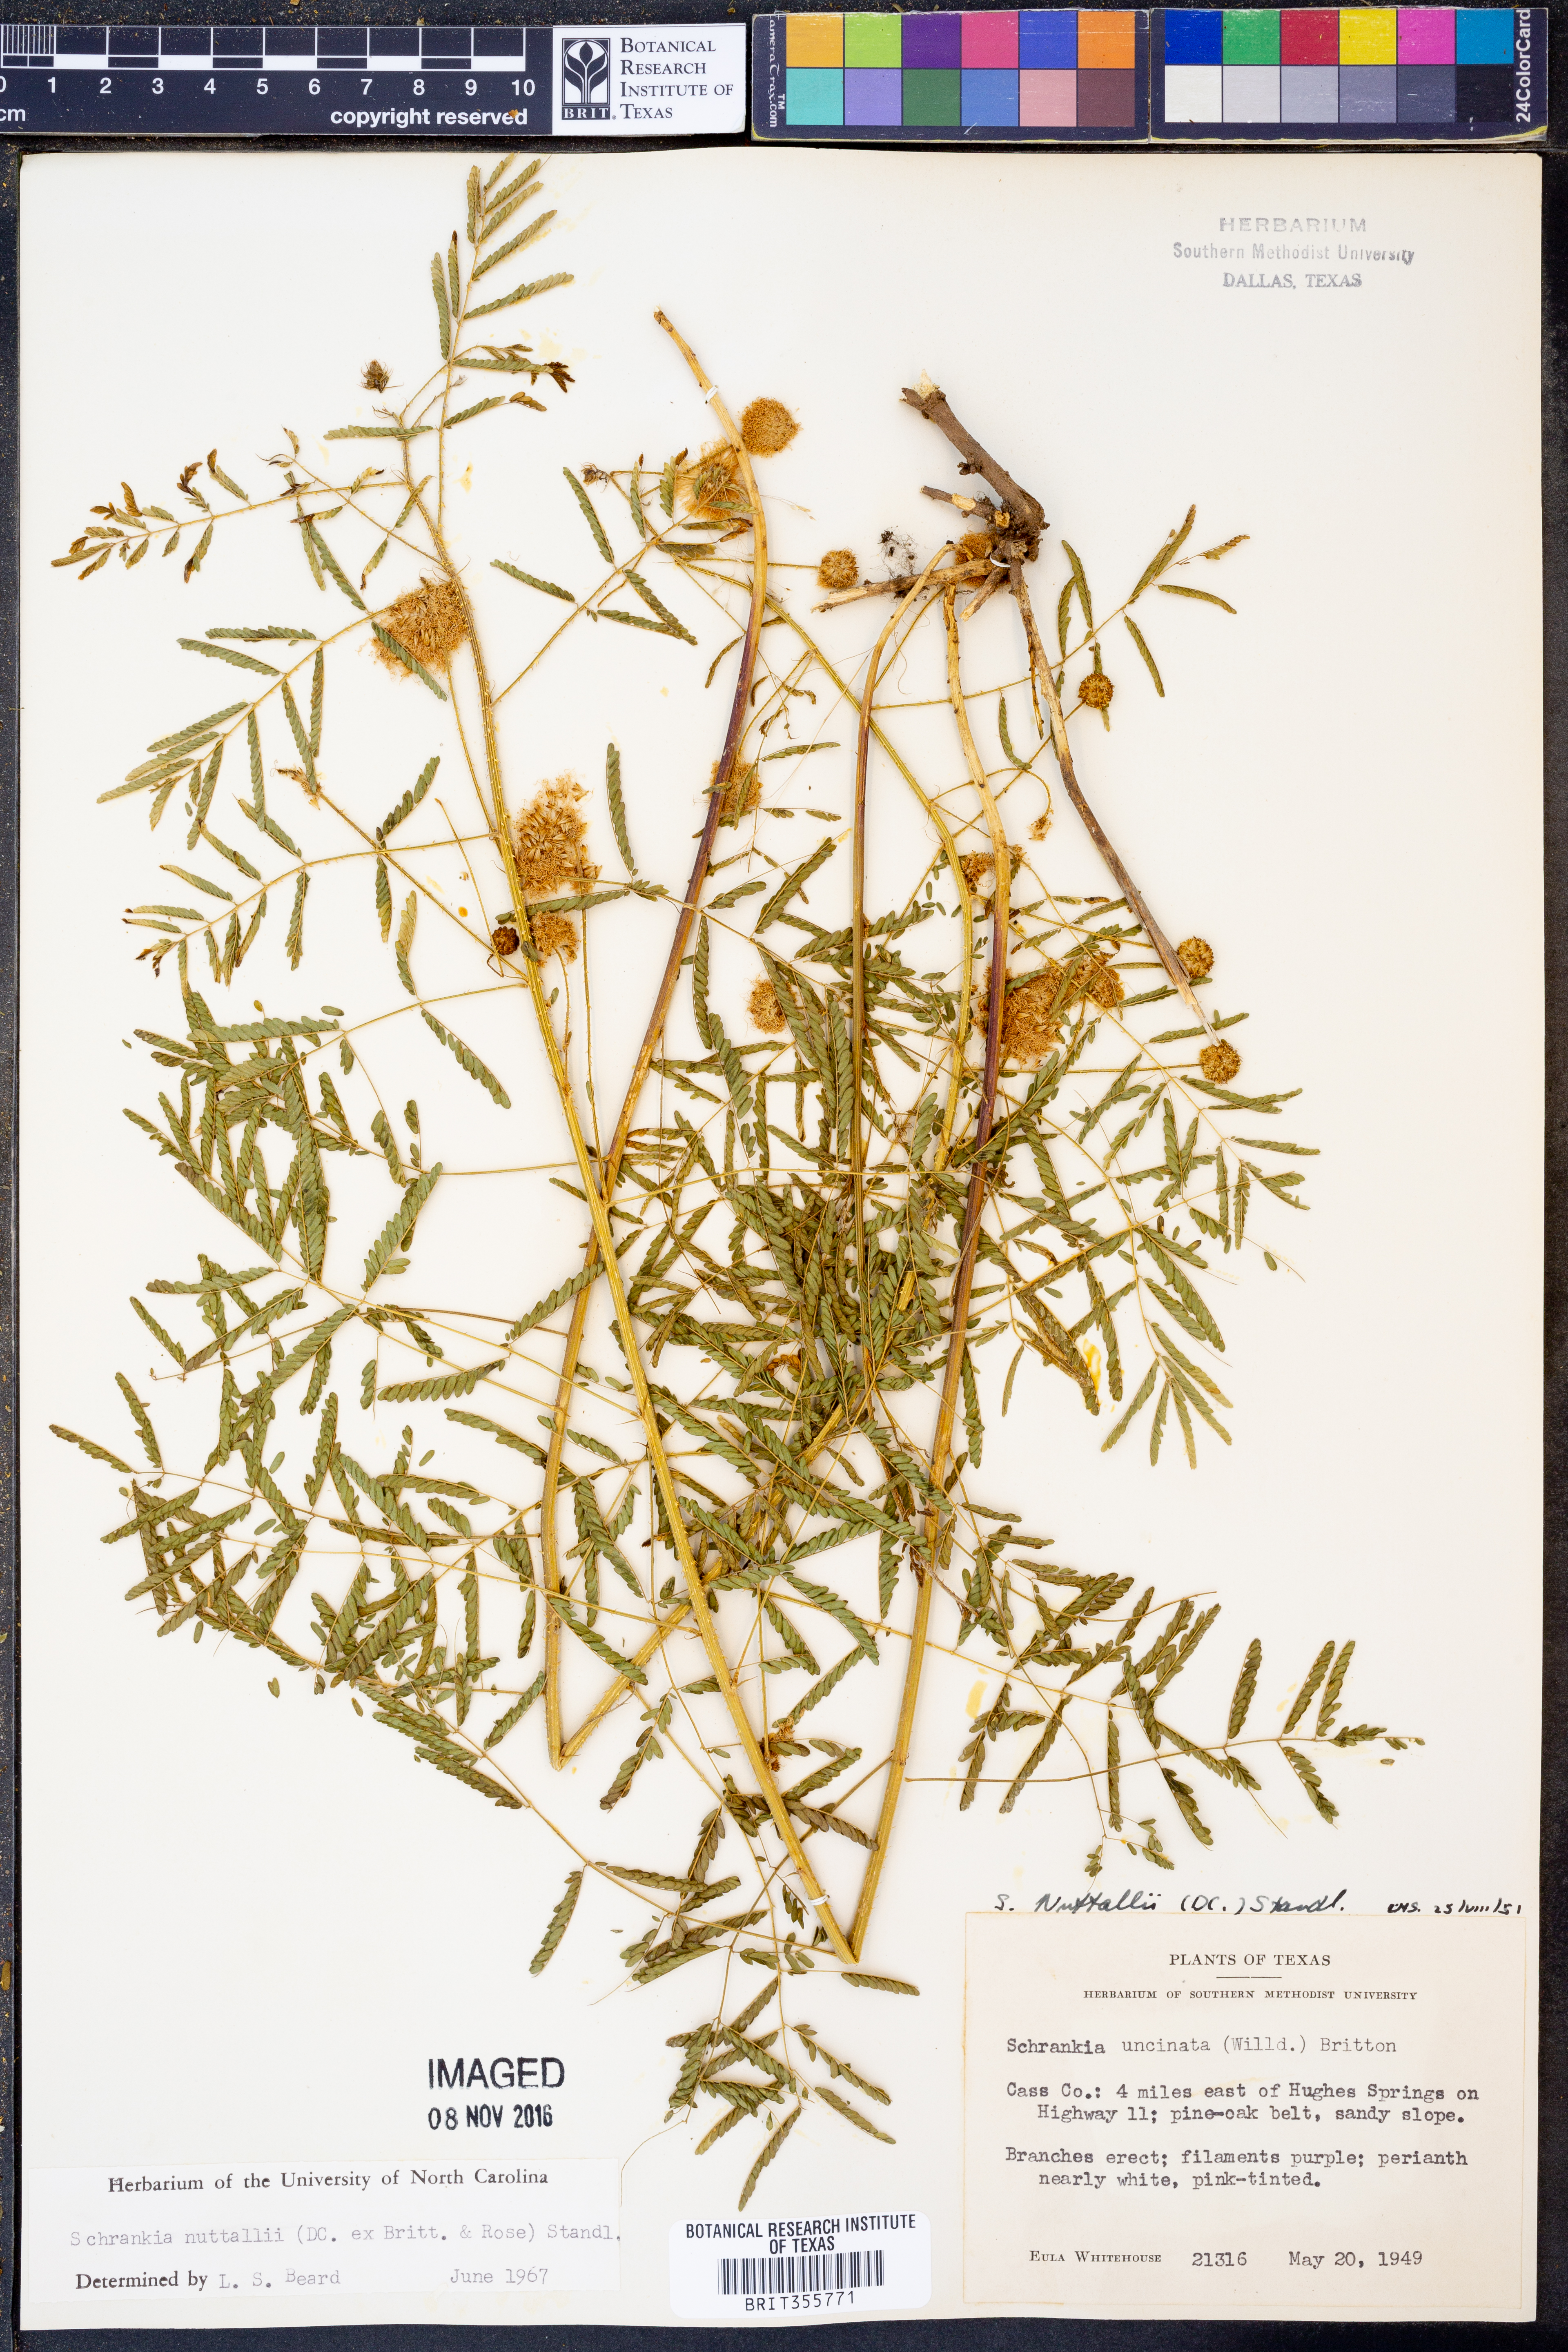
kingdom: Plantae
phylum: Tracheophyta
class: Magnoliopsida
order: Fabales
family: Fabaceae
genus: Mimosa
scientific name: Mimosa quadrivalvis
